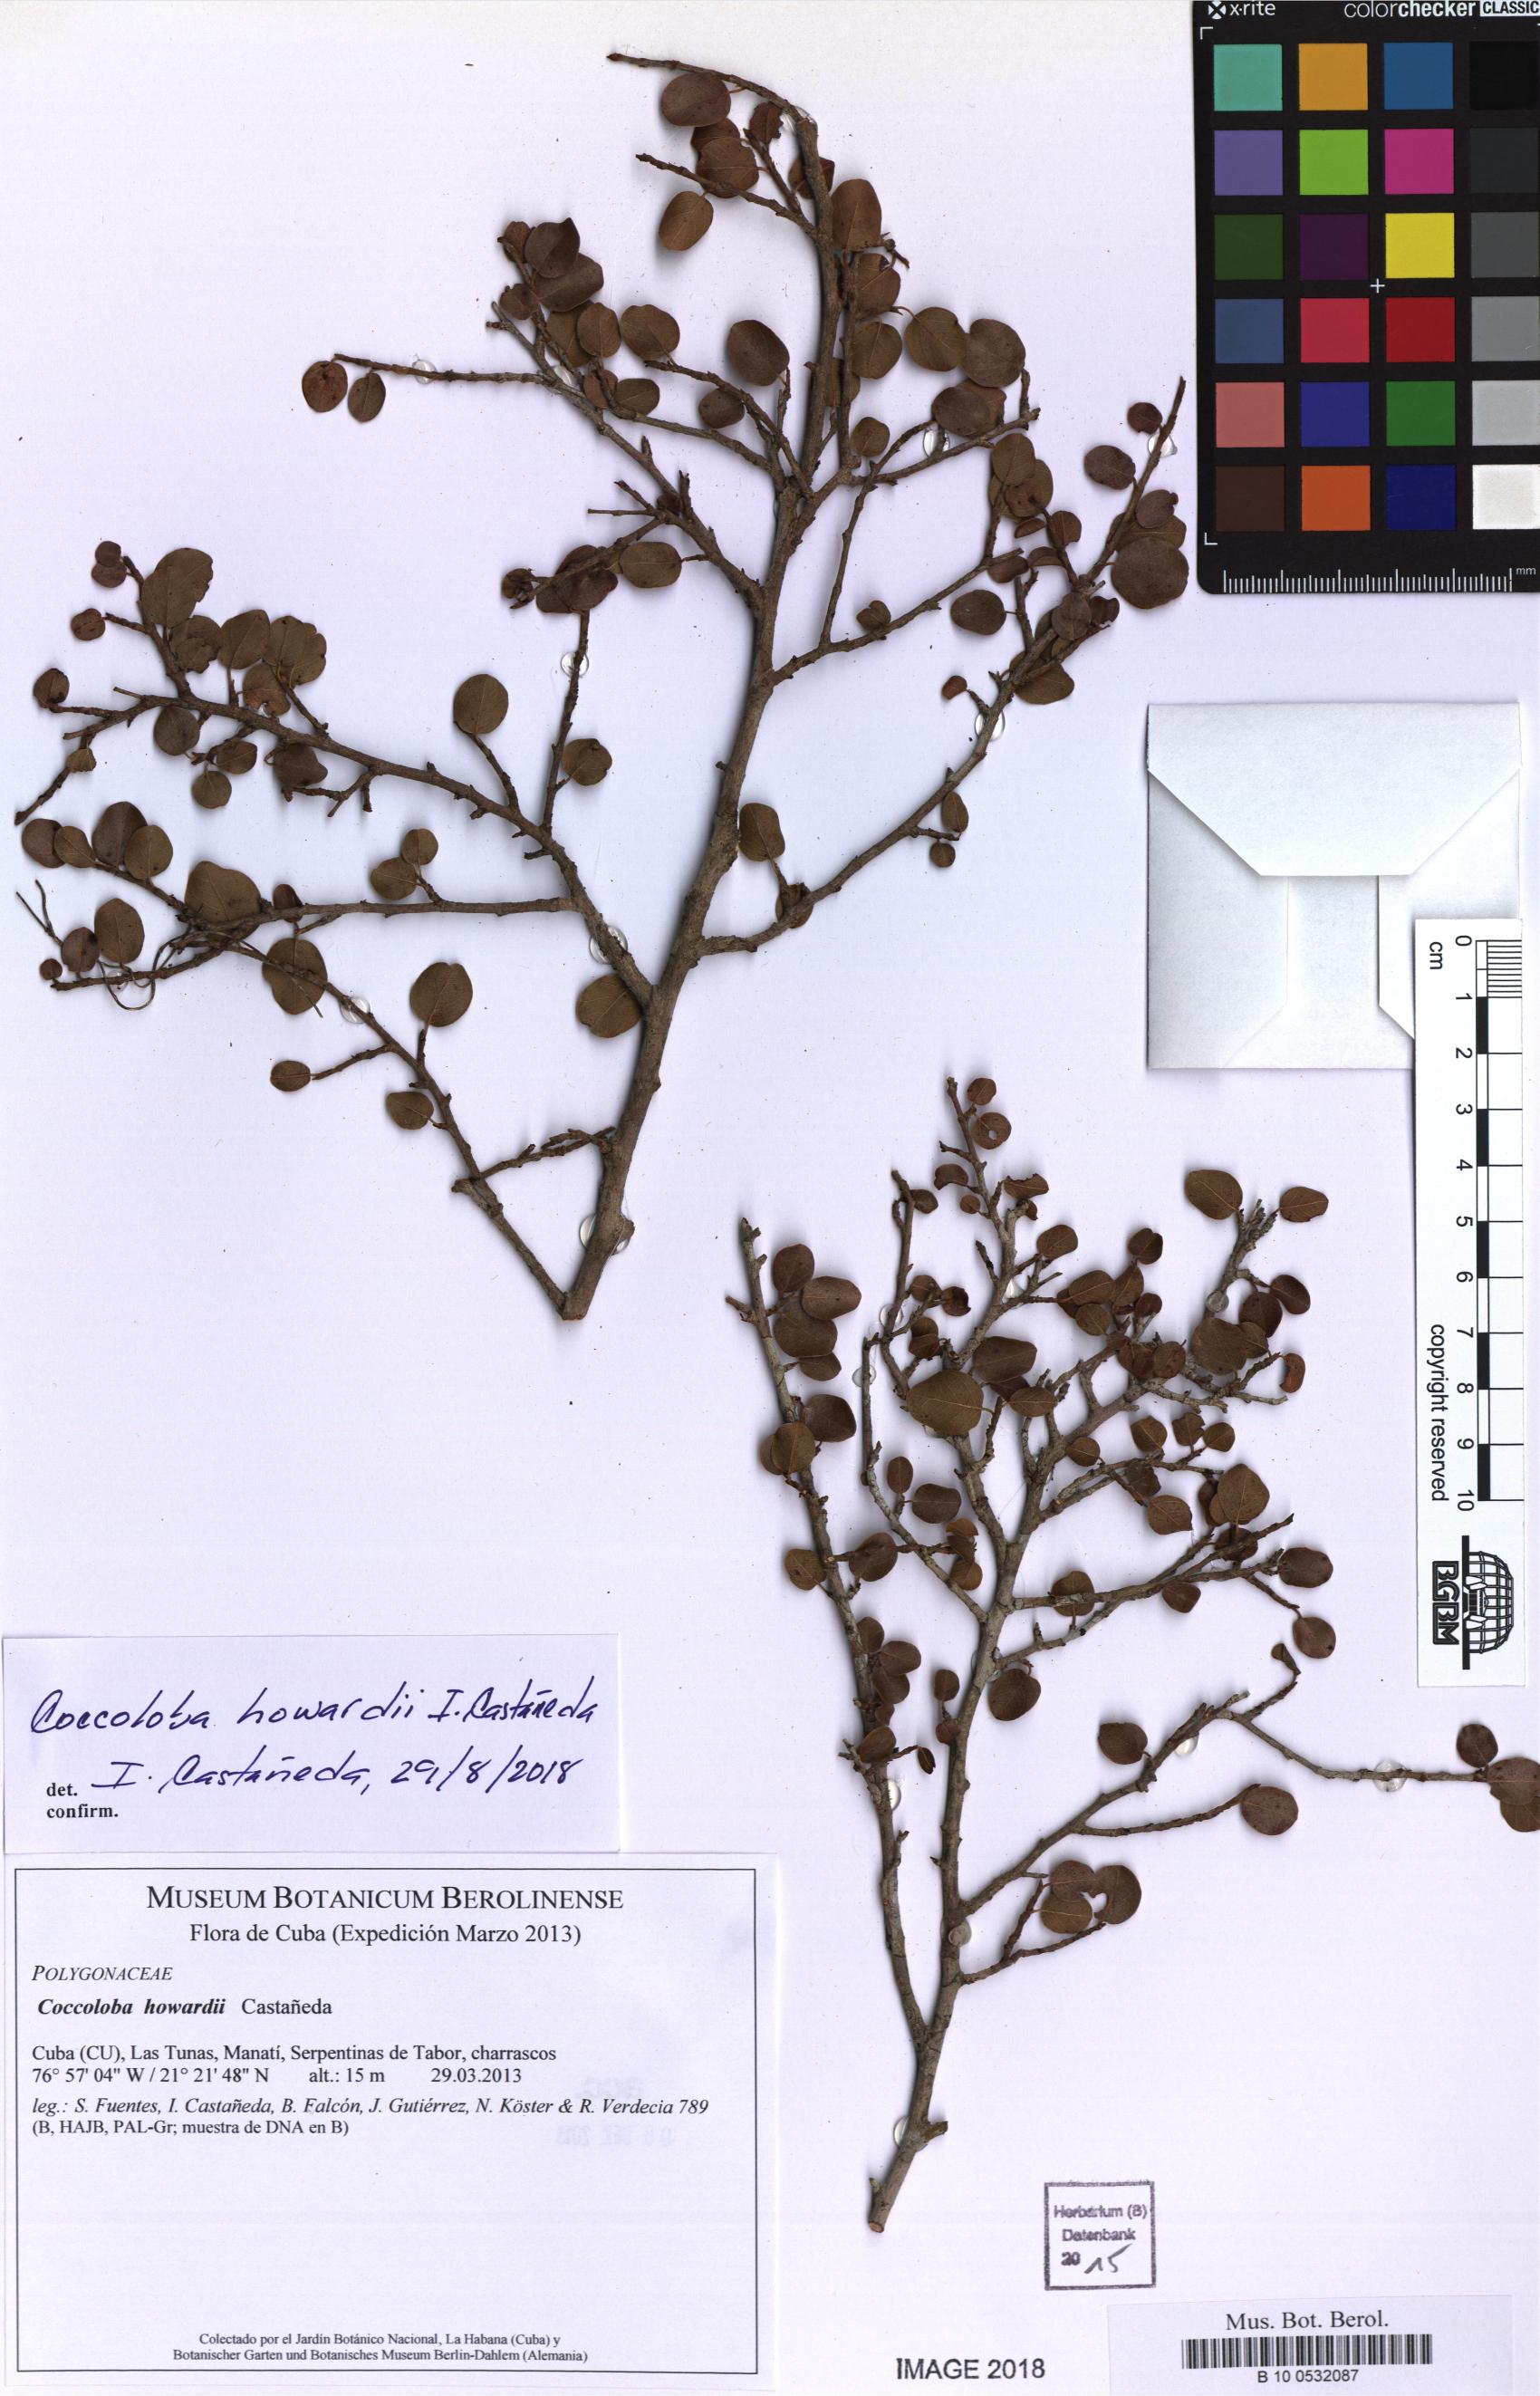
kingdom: Plantae
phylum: Tracheophyta
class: Magnoliopsida
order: Caryophyllales
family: Polygonaceae
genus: Coccoloba
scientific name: Coccoloba howardii
